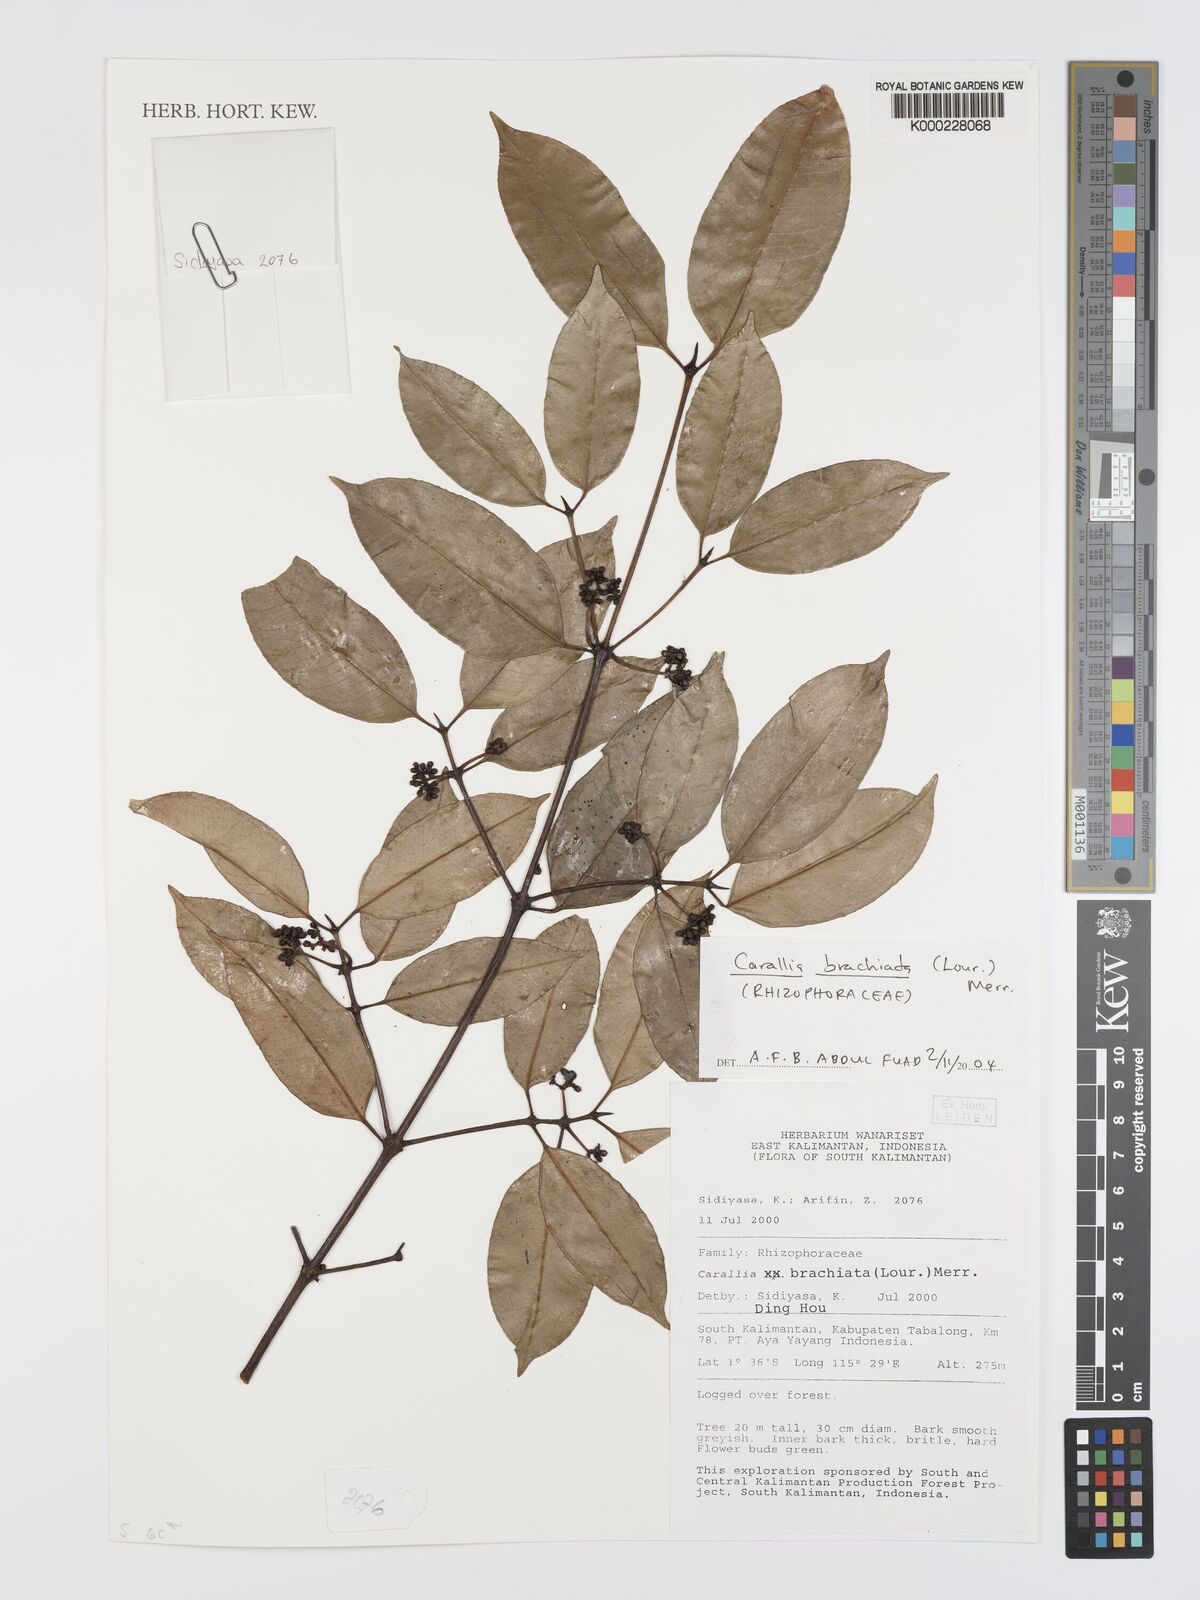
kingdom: Plantae
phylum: Tracheophyta
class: Magnoliopsida
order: Malpighiales
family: Rhizophoraceae
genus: Carallia
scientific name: Carallia brachiata
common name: Carallawood
